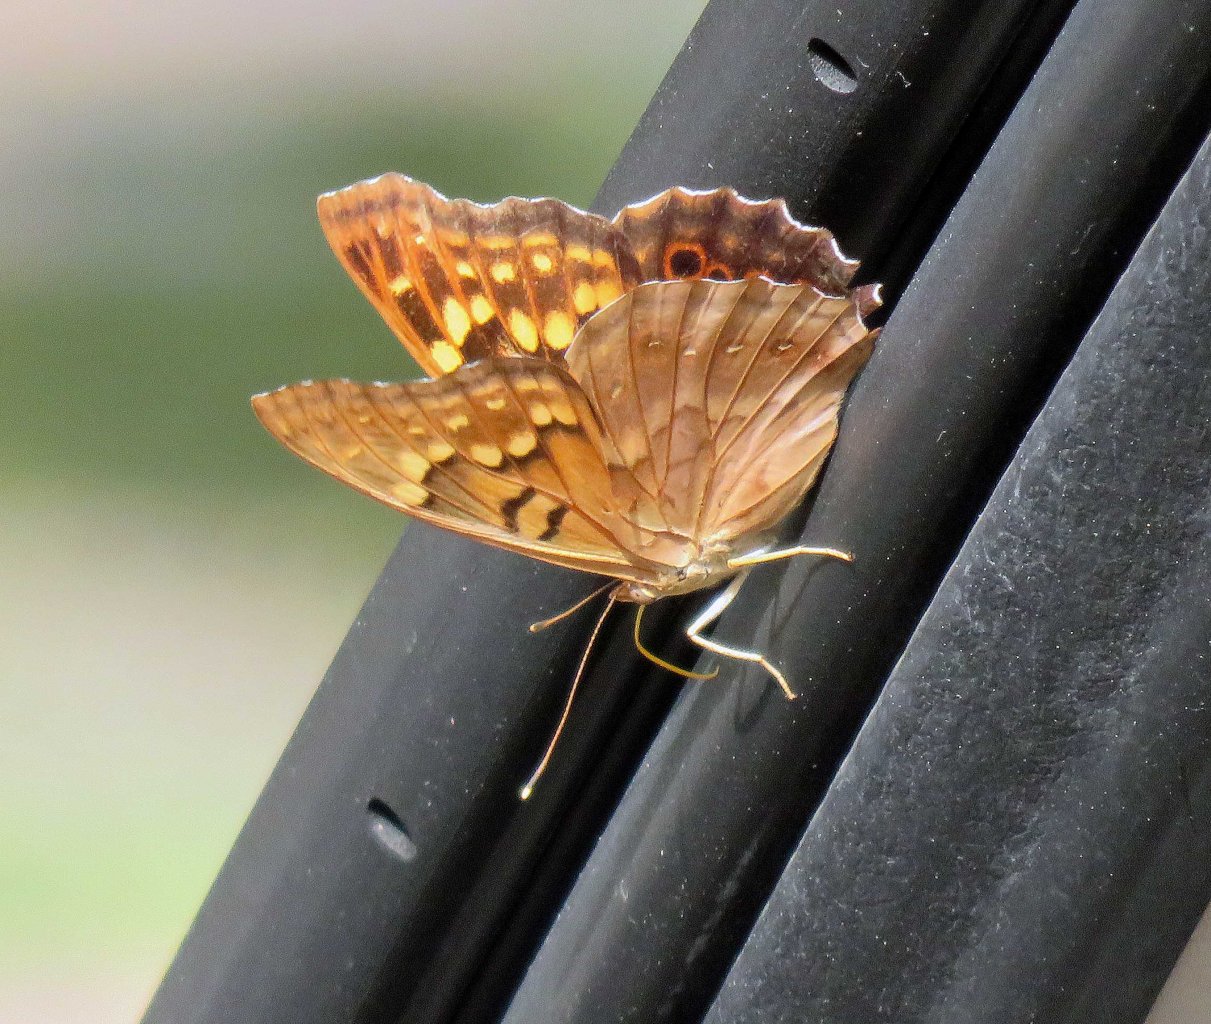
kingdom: Animalia
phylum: Arthropoda
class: Insecta
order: Lepidoptera
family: Nymphalidae
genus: Asterocampa
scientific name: Asterocampa clyton
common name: Tawny Emperor
